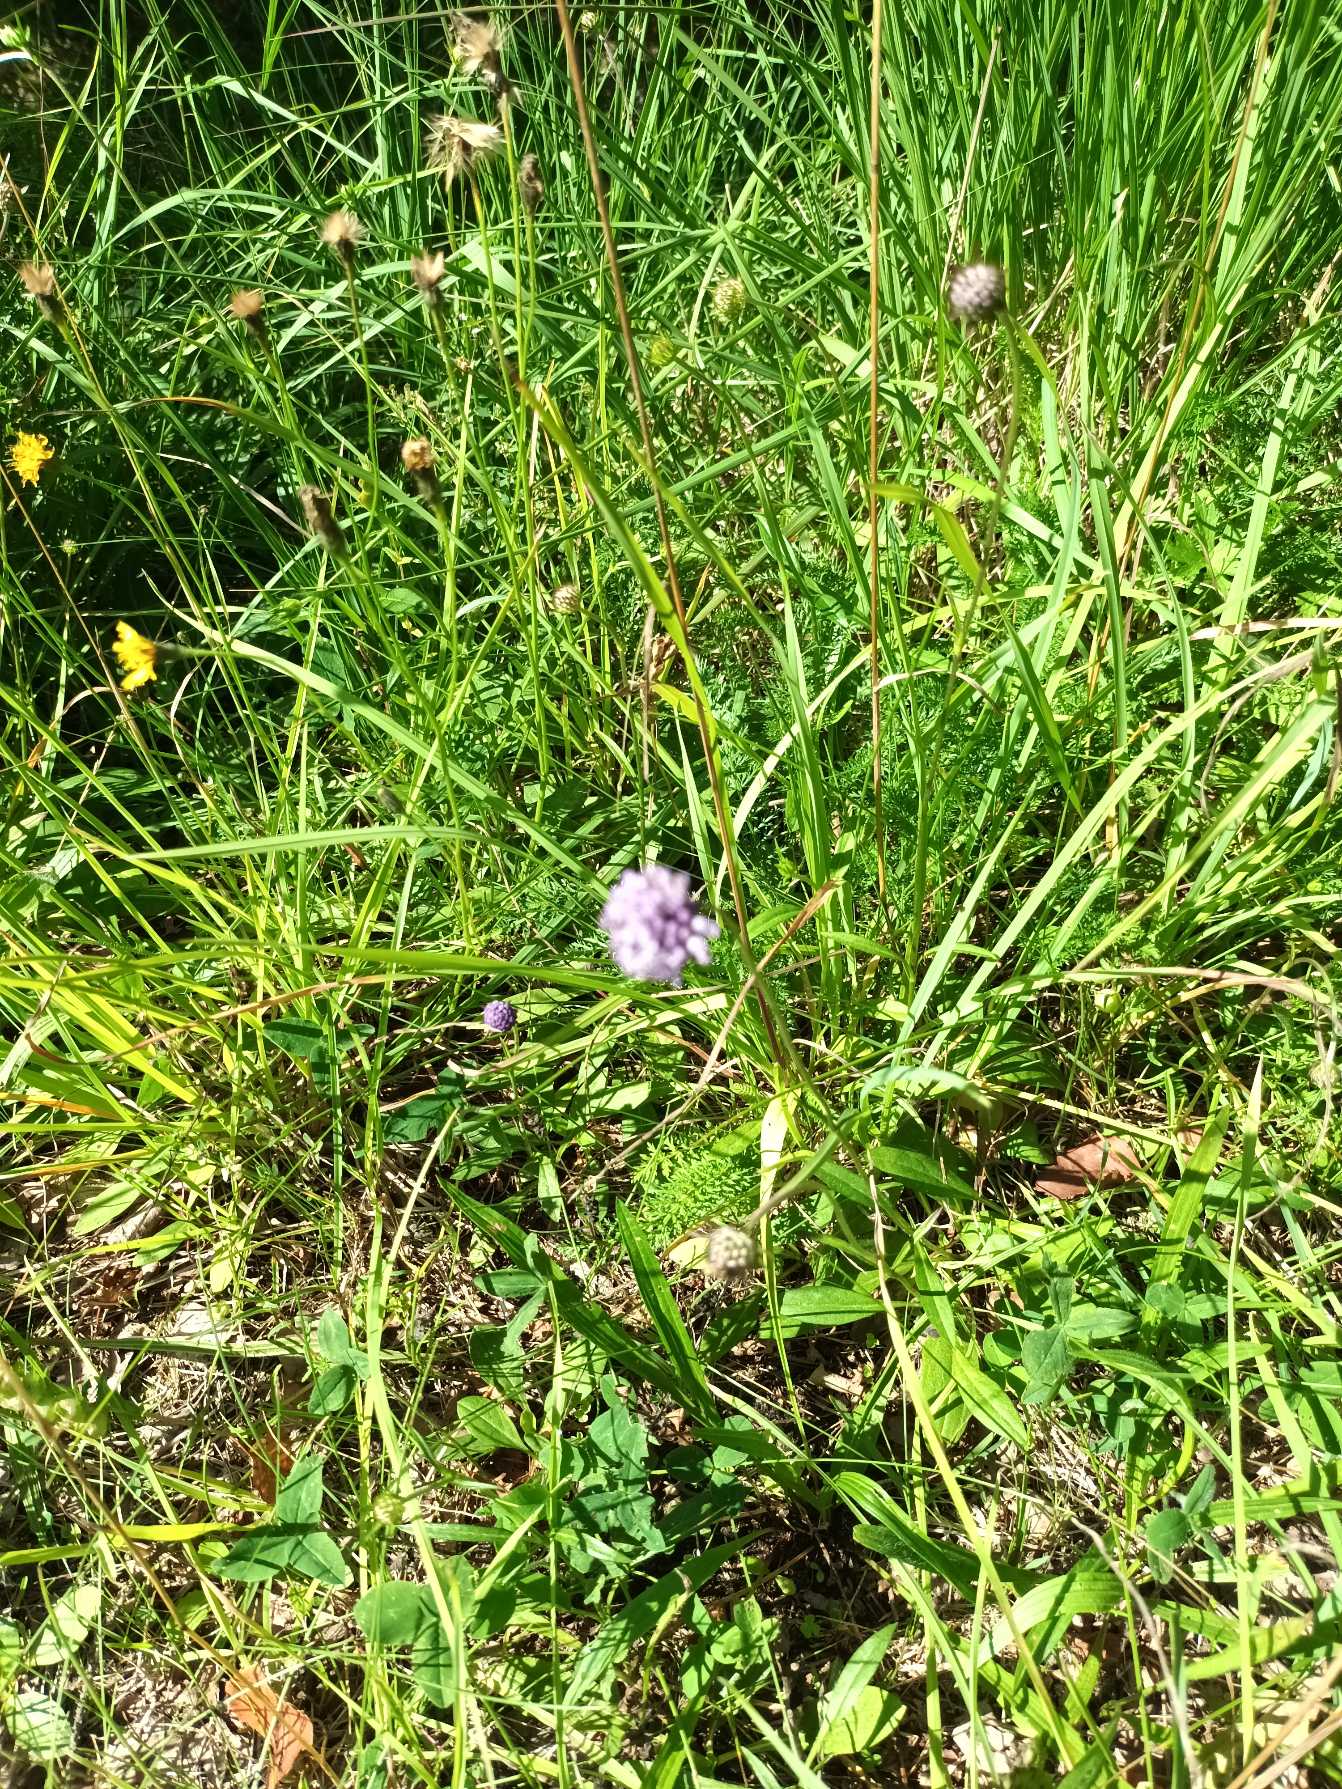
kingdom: Plantae
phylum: Tracheophyta
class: Magnoliopsida
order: Dipsacales
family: Caprifoliaceae
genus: Succisa
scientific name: Succisa pratensis
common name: Djævelsbid
